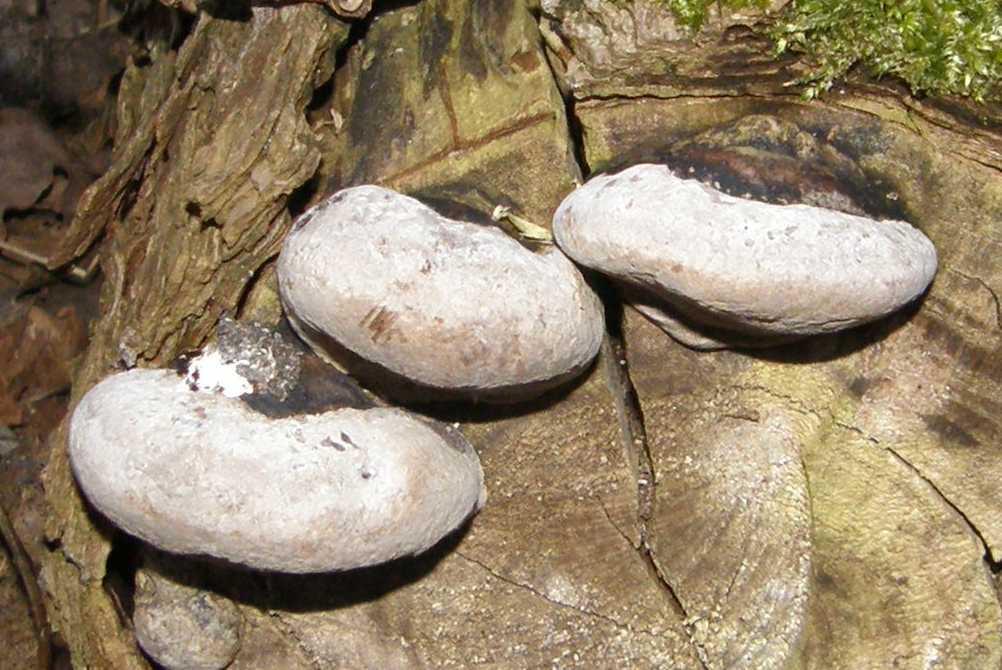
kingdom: Fungi
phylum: Basidiomycota
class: Agaricomycetes
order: Hymenochaetales
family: Hymenochaetaceae
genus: Phellinus
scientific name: Phellinus igniarius
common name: almindelig ildporesvamp
